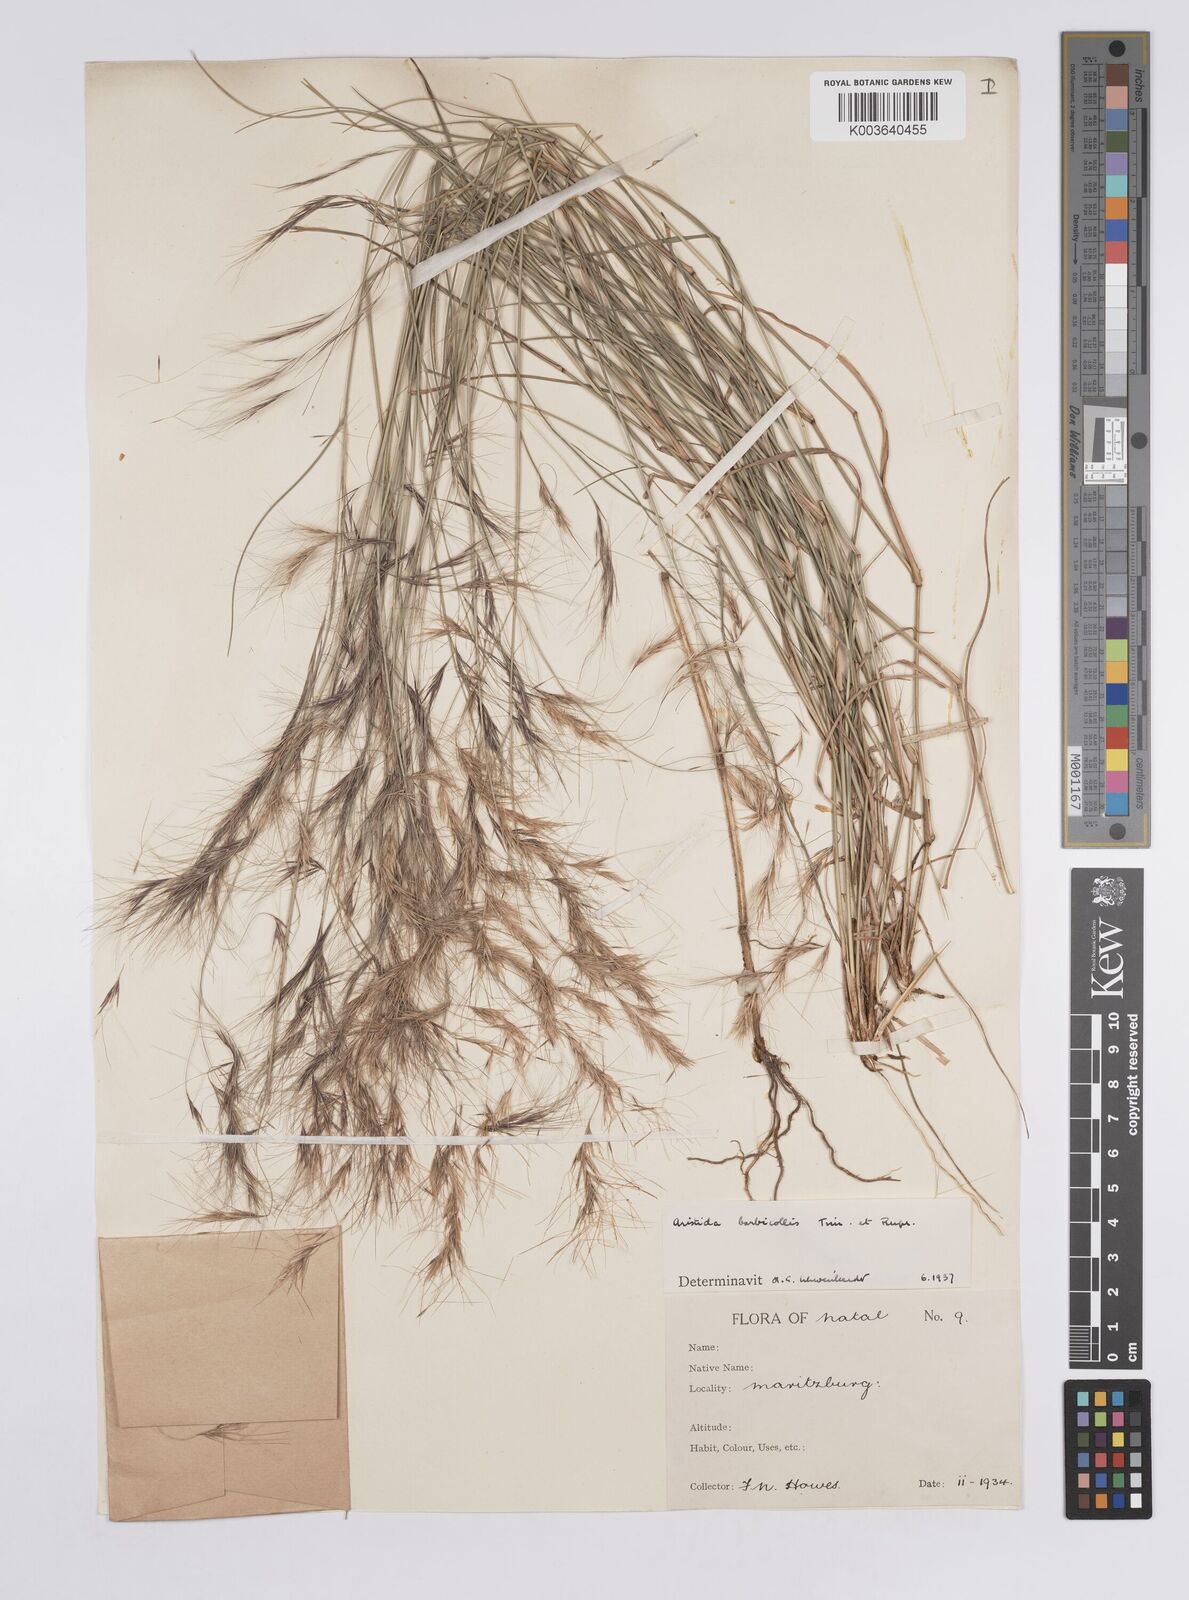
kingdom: Plantae
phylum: Tracheophyta
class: Liliopsida
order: Poales
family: Poaceae
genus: Aristida
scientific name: Aristida barbicollis
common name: Spreading prickle grass
